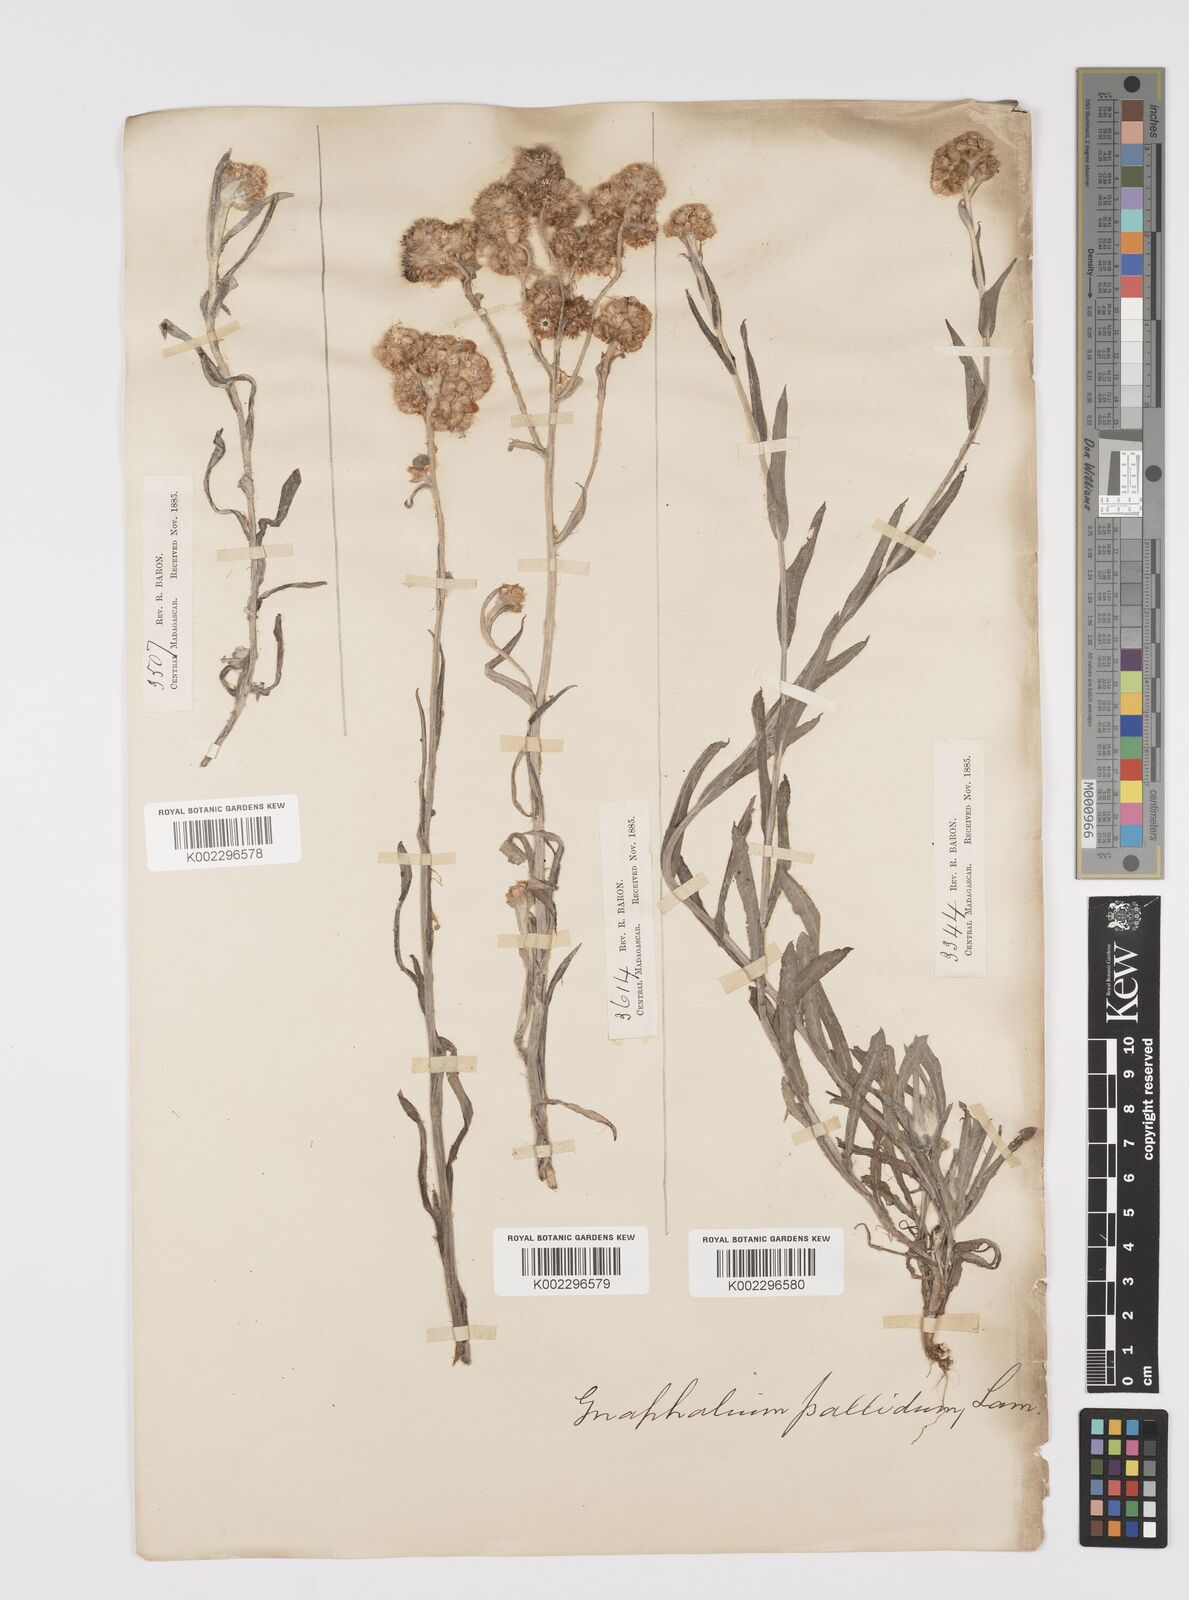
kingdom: Plantae
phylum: Tracheophyta
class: Magnoliopsida
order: Asterales
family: Asteraceae
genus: Helichrysum
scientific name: Helichrysum luteoalbum
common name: Daisy
